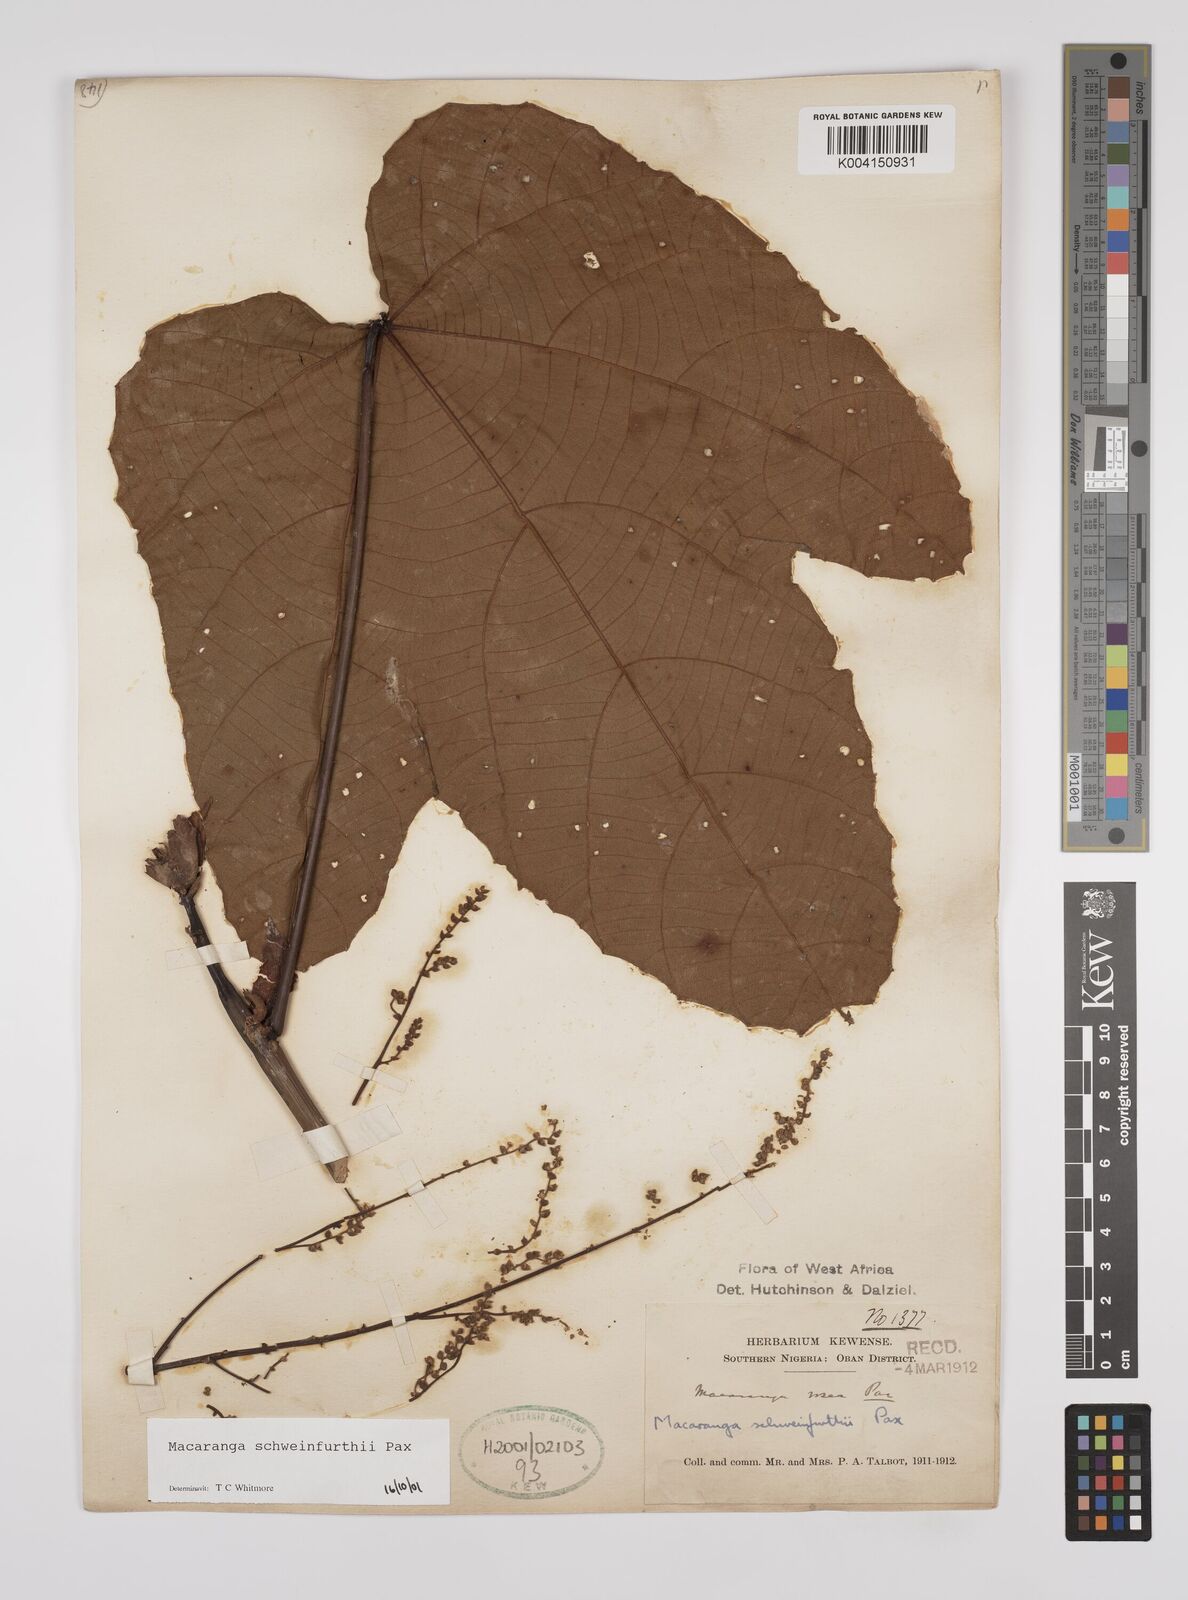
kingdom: Plantae
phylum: Tracheophyta
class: Magnoliopsida
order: Malpighiales
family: Euphorbiaceae
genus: Macaranga
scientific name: Macaranga schweinfurthii
